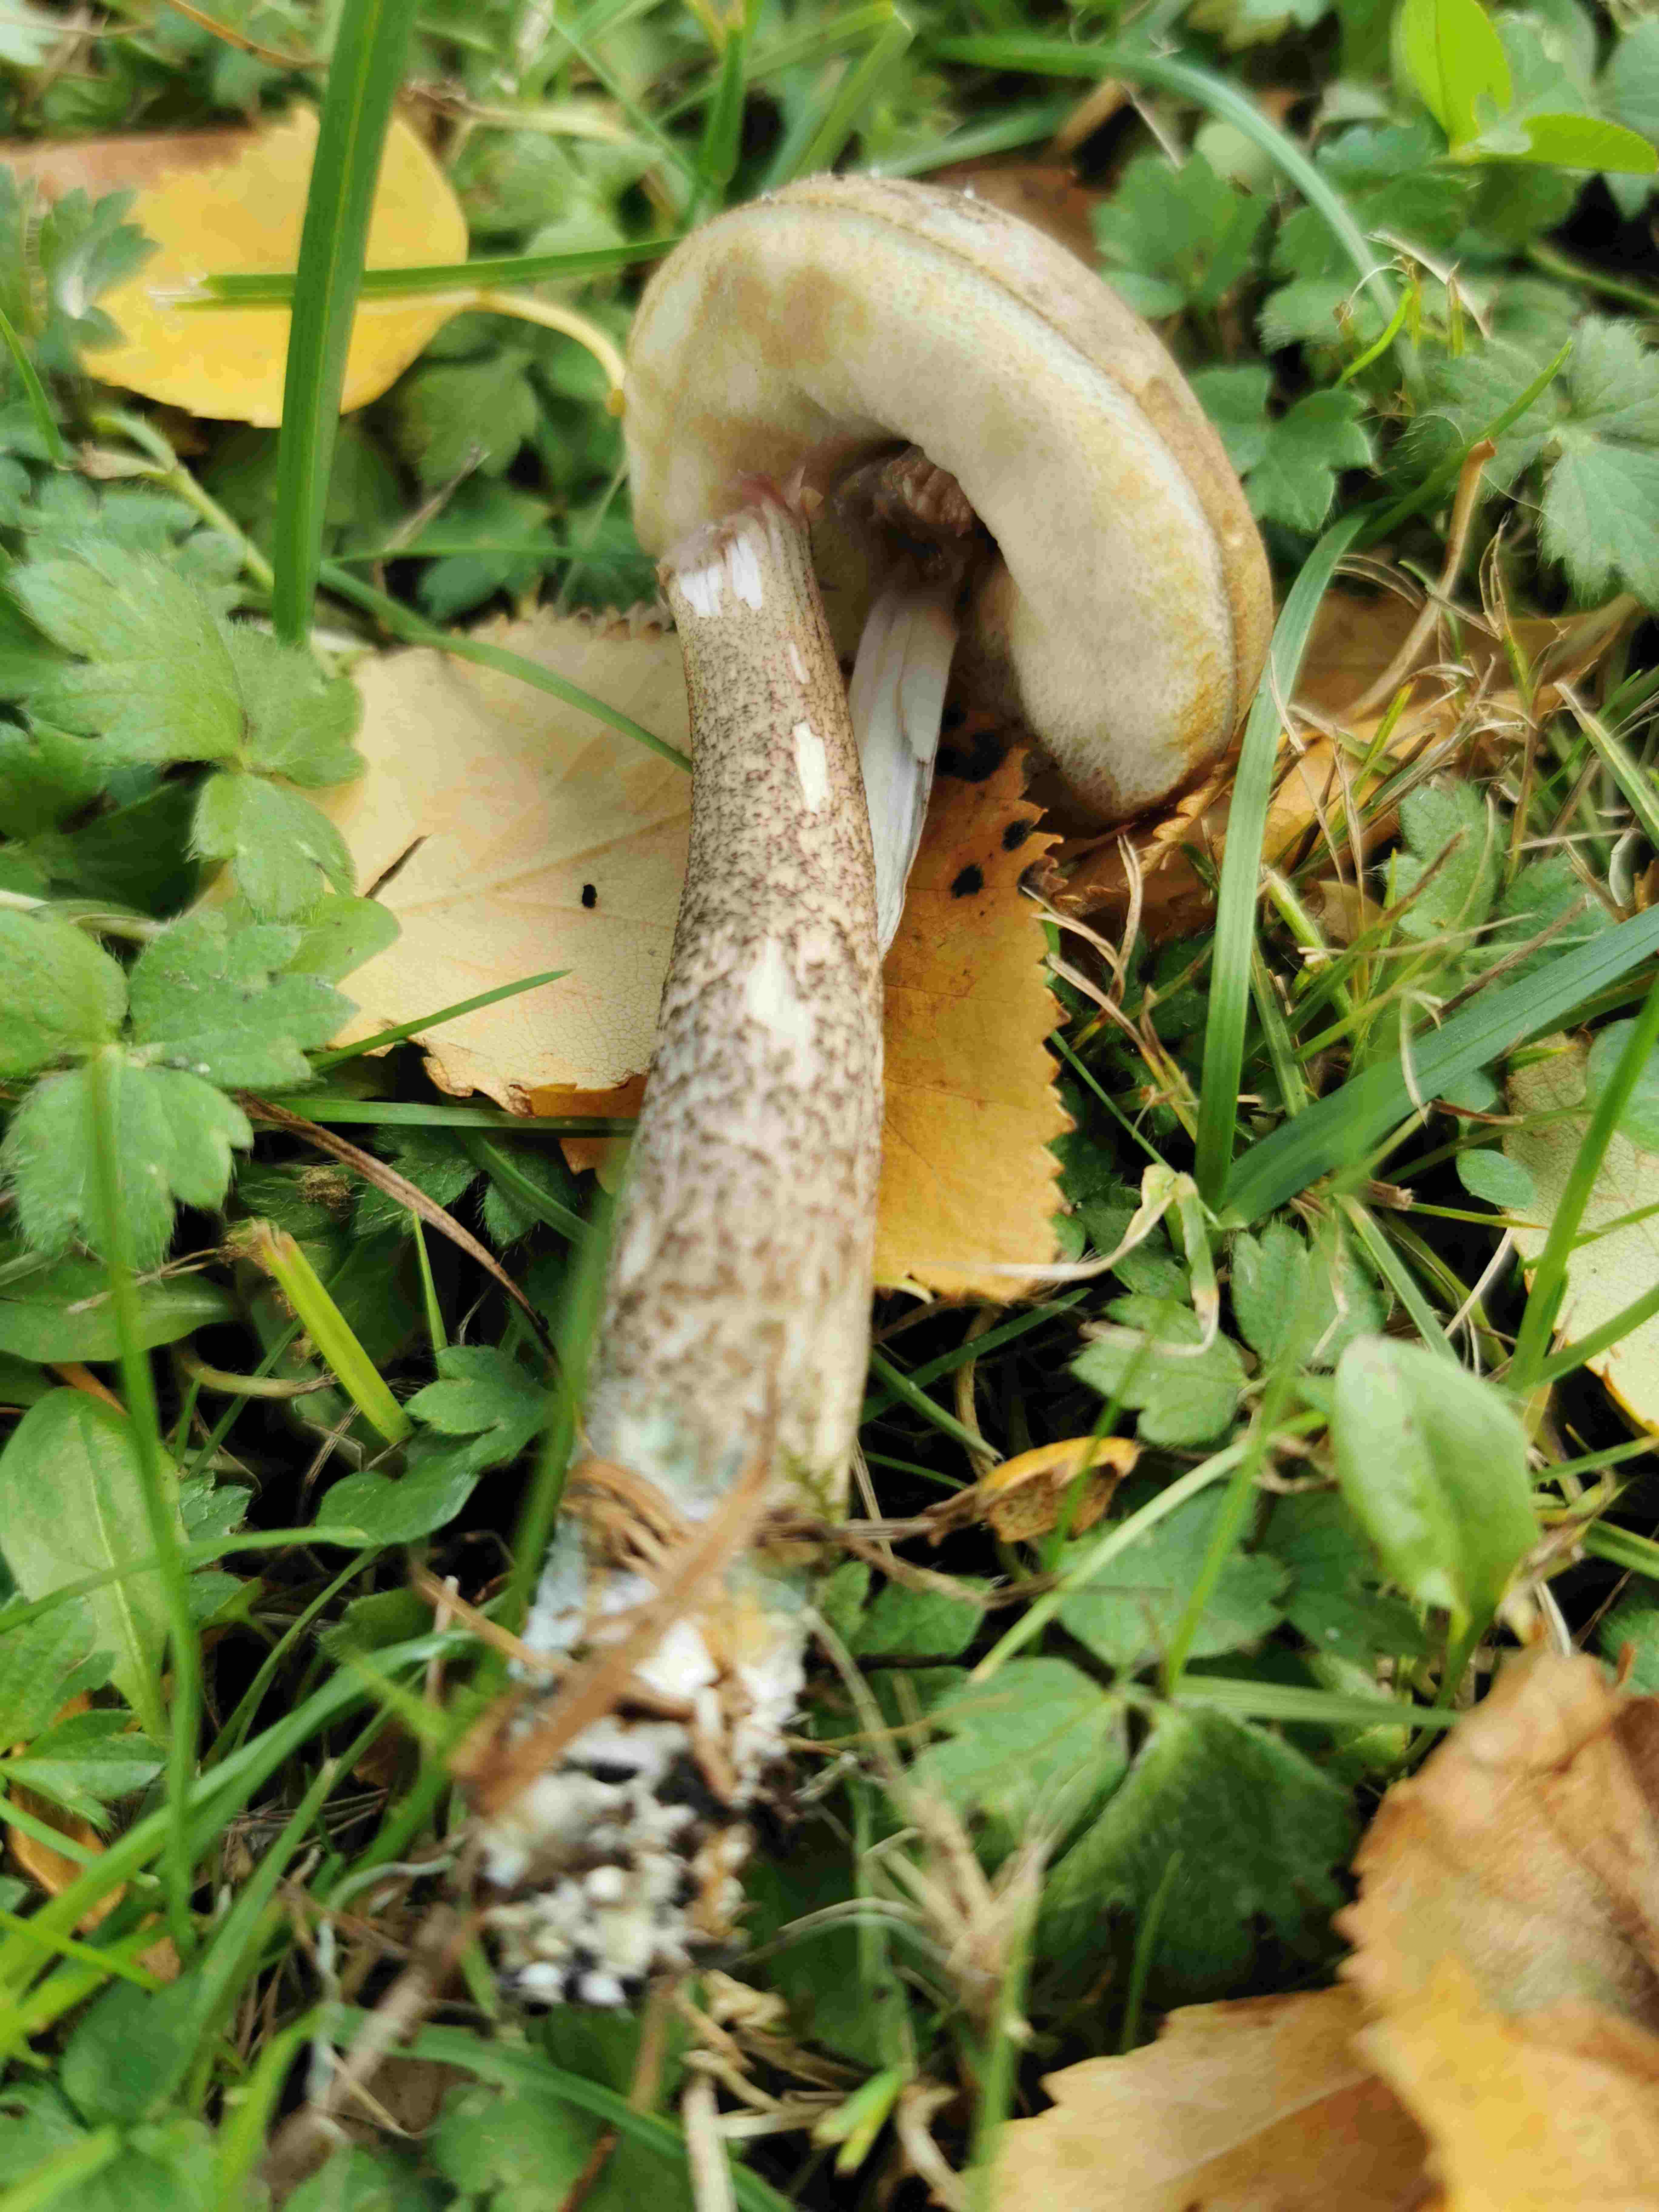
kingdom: Fungi
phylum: Basidiomycota
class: Agaricomycetes
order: Boletales
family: Boletaceae
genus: Leccinum
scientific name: Leccinum
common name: skælrørhat
